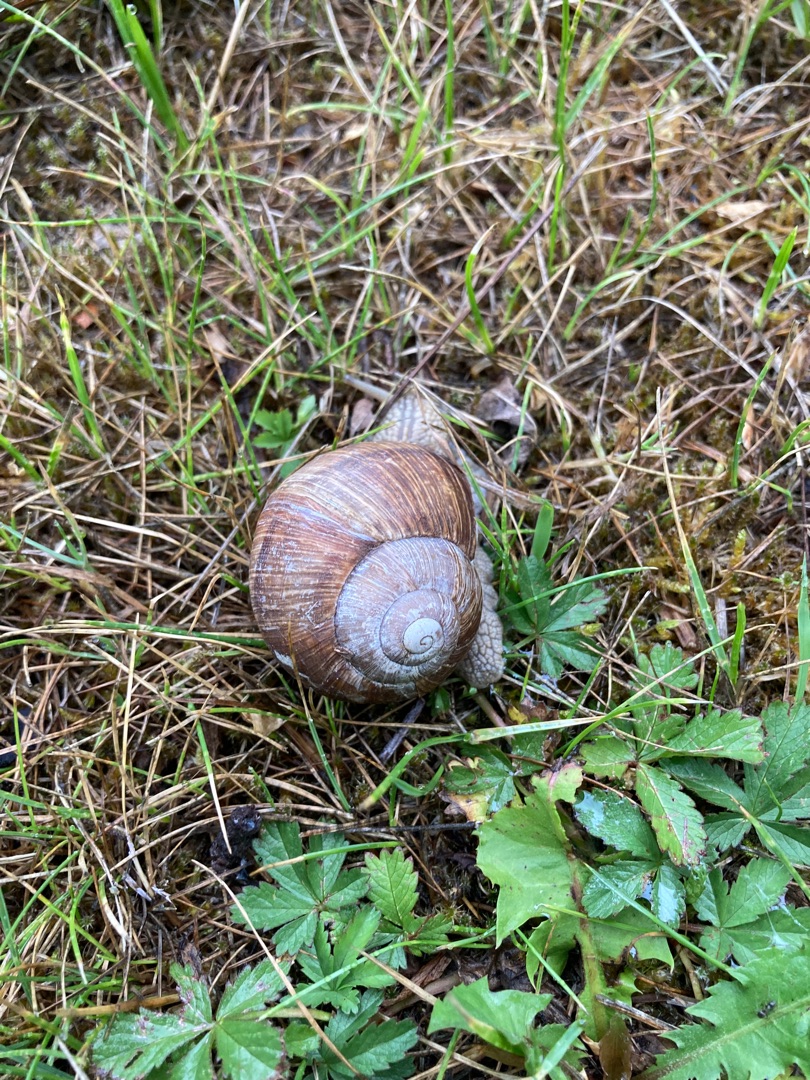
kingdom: Animalia
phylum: Mollusca
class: Gastropoda
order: Stylommatophora
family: Helicidae
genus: Helix
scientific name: Helix pomatia
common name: Vinbjergsnegl
